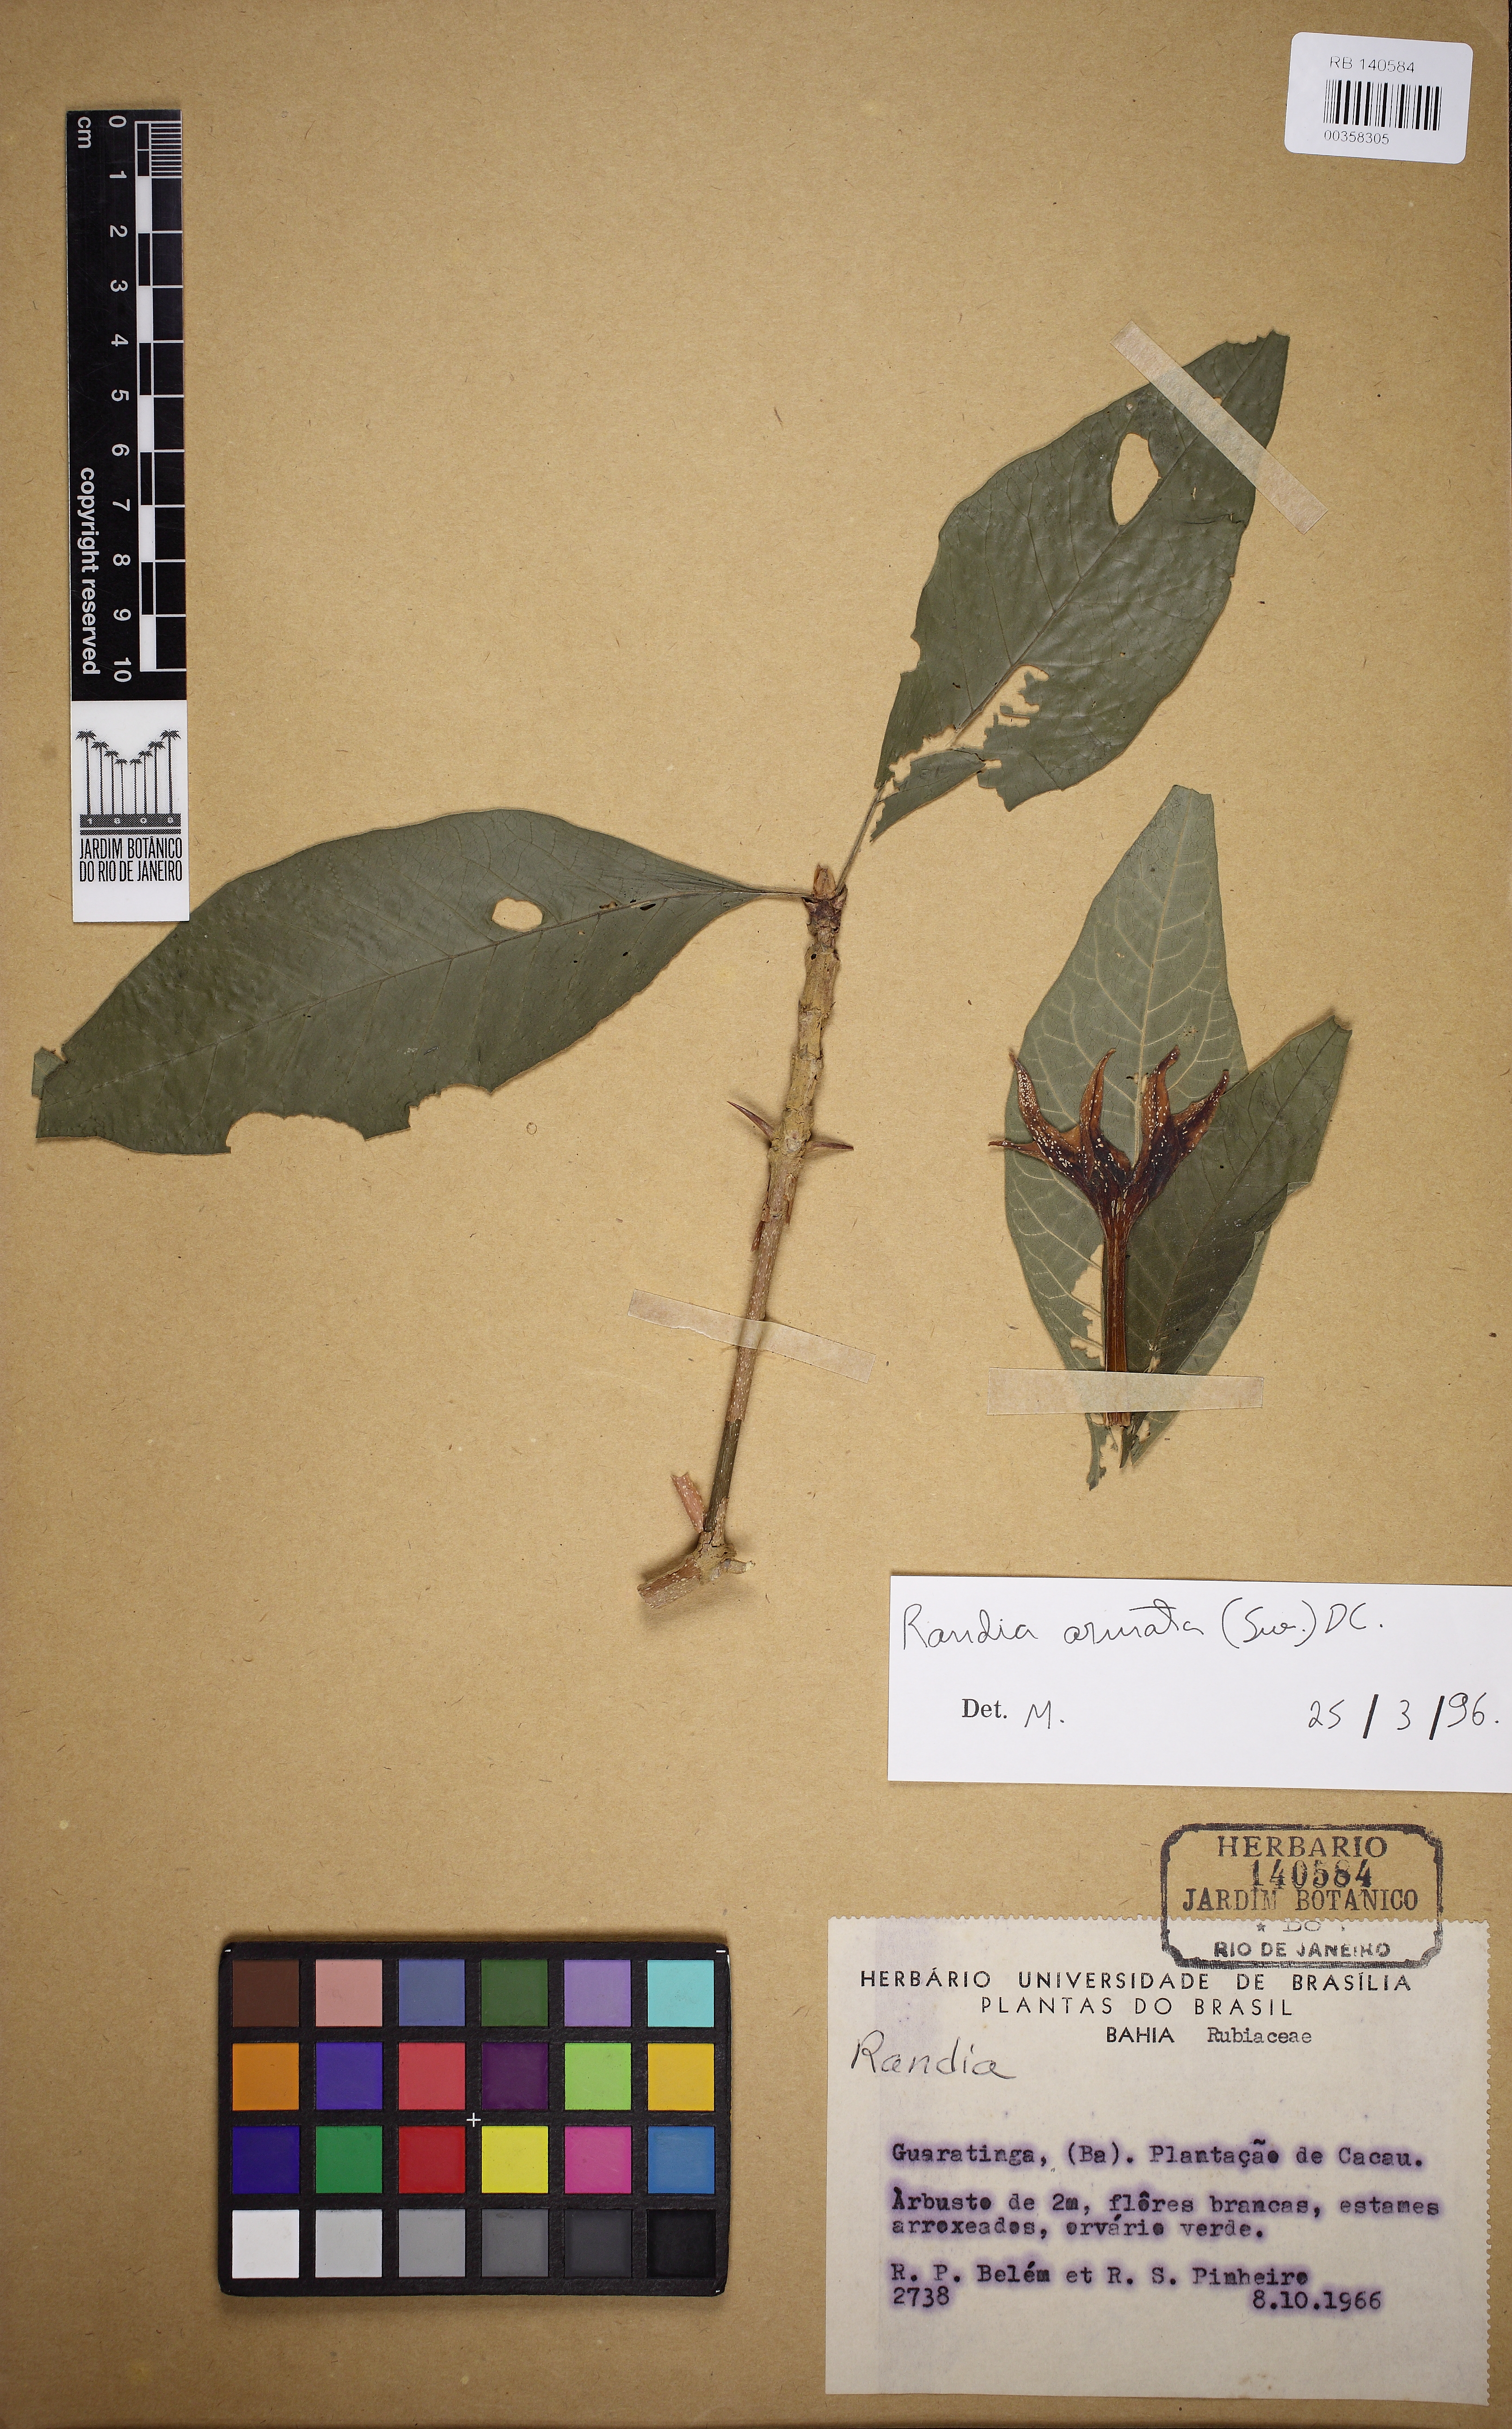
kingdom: Plantae
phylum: Tracheophyta
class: Magnoliopsida
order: Gentianales
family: Rubiaceae
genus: Sphinctanthus
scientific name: Sphinctanthus insignis
